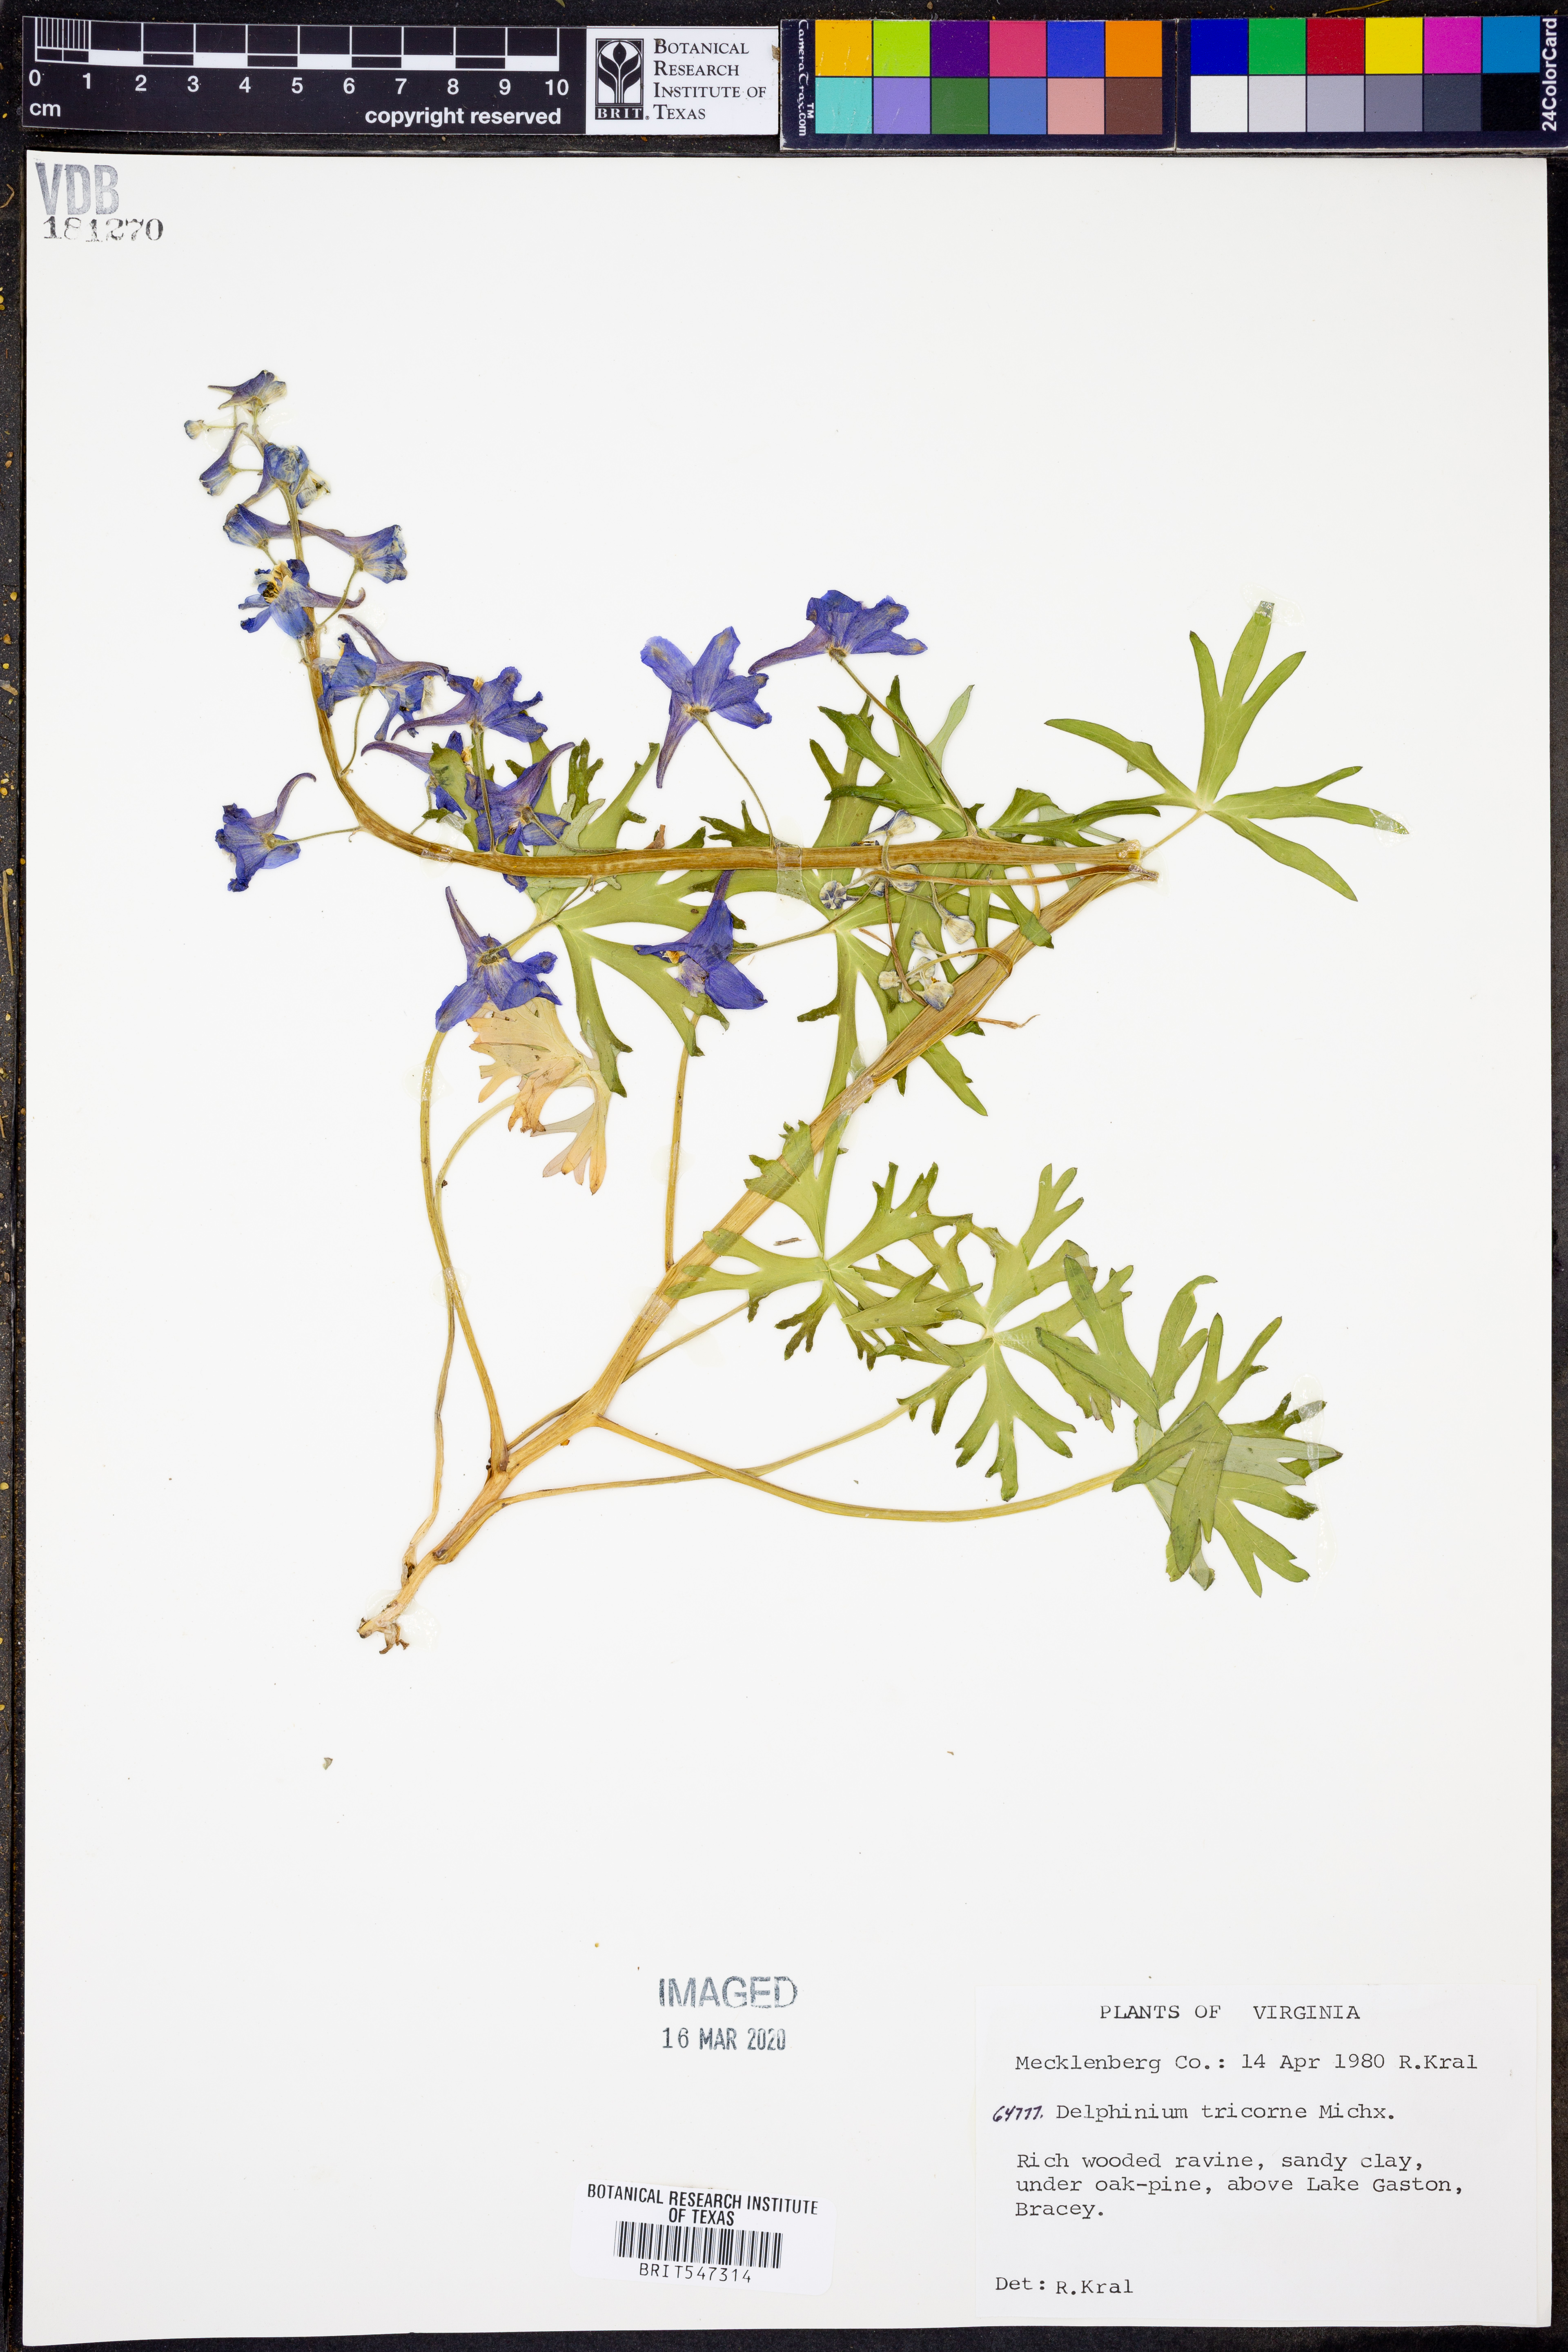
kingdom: Plantae
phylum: Tracheophyta
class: Magnoliopsida
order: Ranunculales
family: Ranunculaceae
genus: Delphinium
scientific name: Delphinium tricorne
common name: Dwarf larkspur
